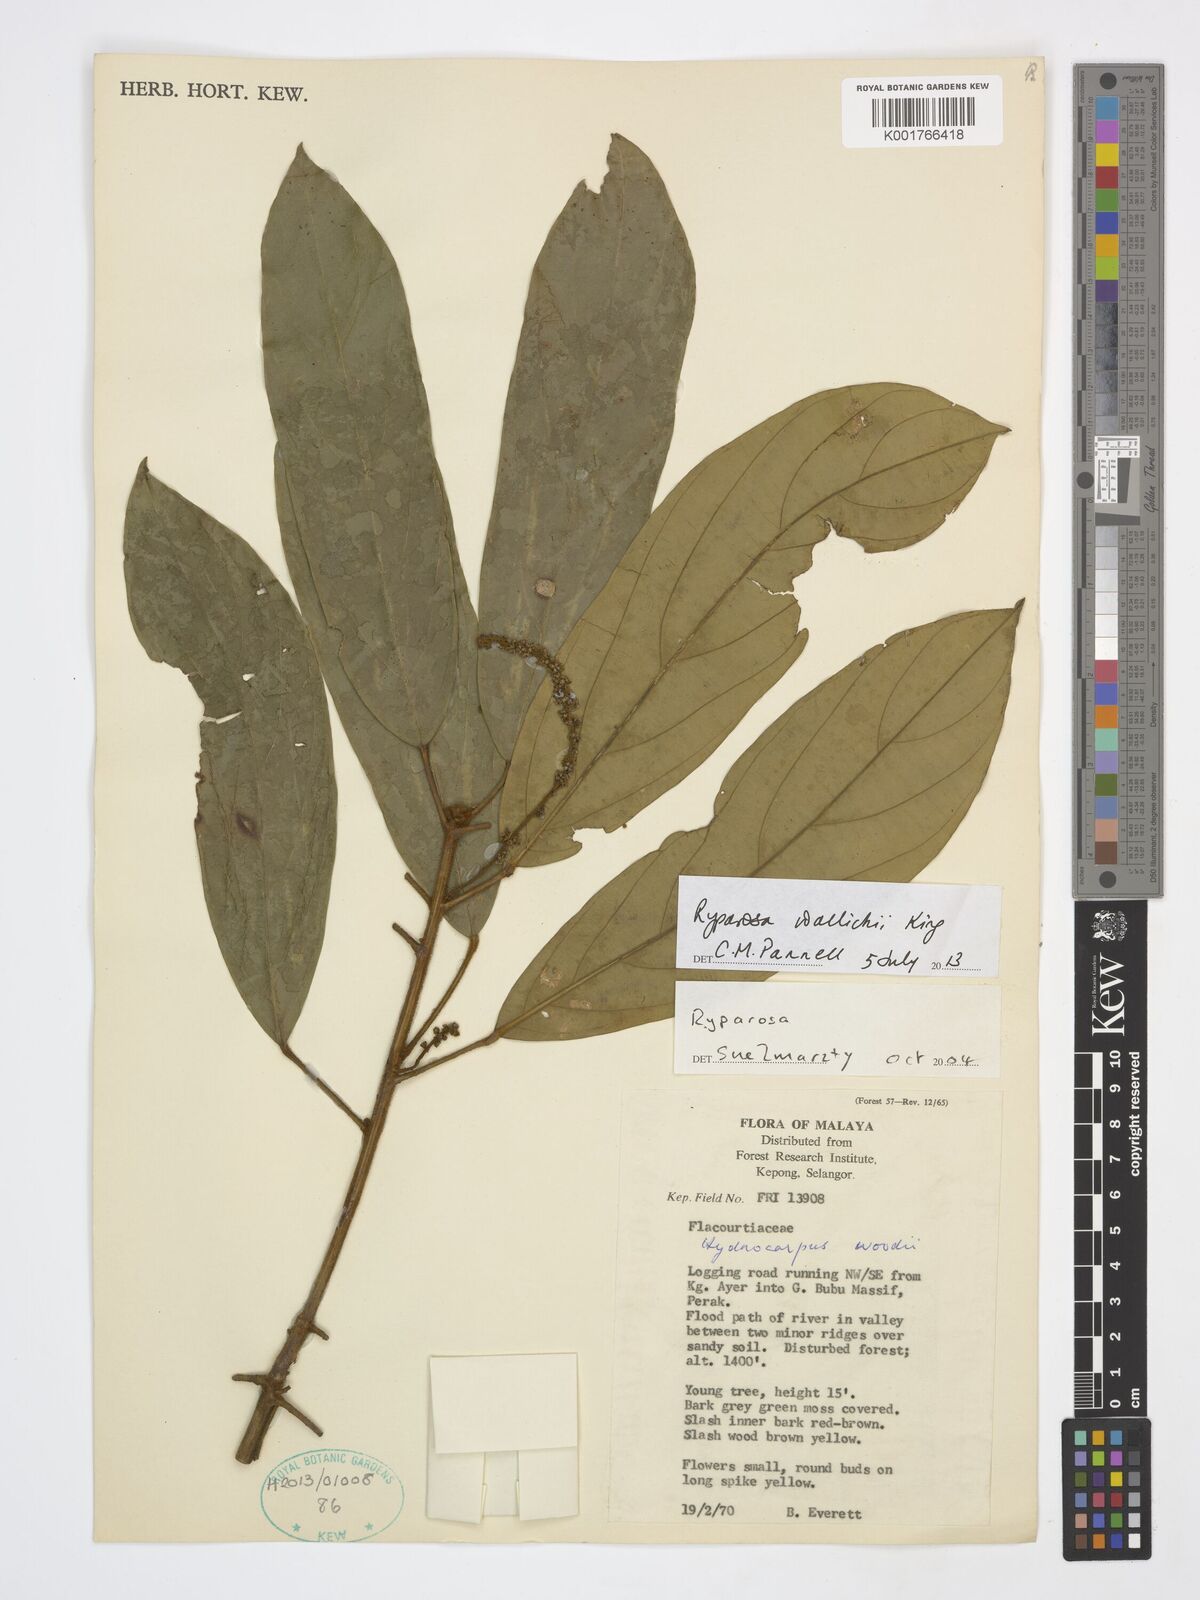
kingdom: Plantae
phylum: Tracheophyta
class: Magnoliopsida
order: Malpighiales
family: Achariaceae
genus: Ryparosa
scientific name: Ryparosa wallichii
